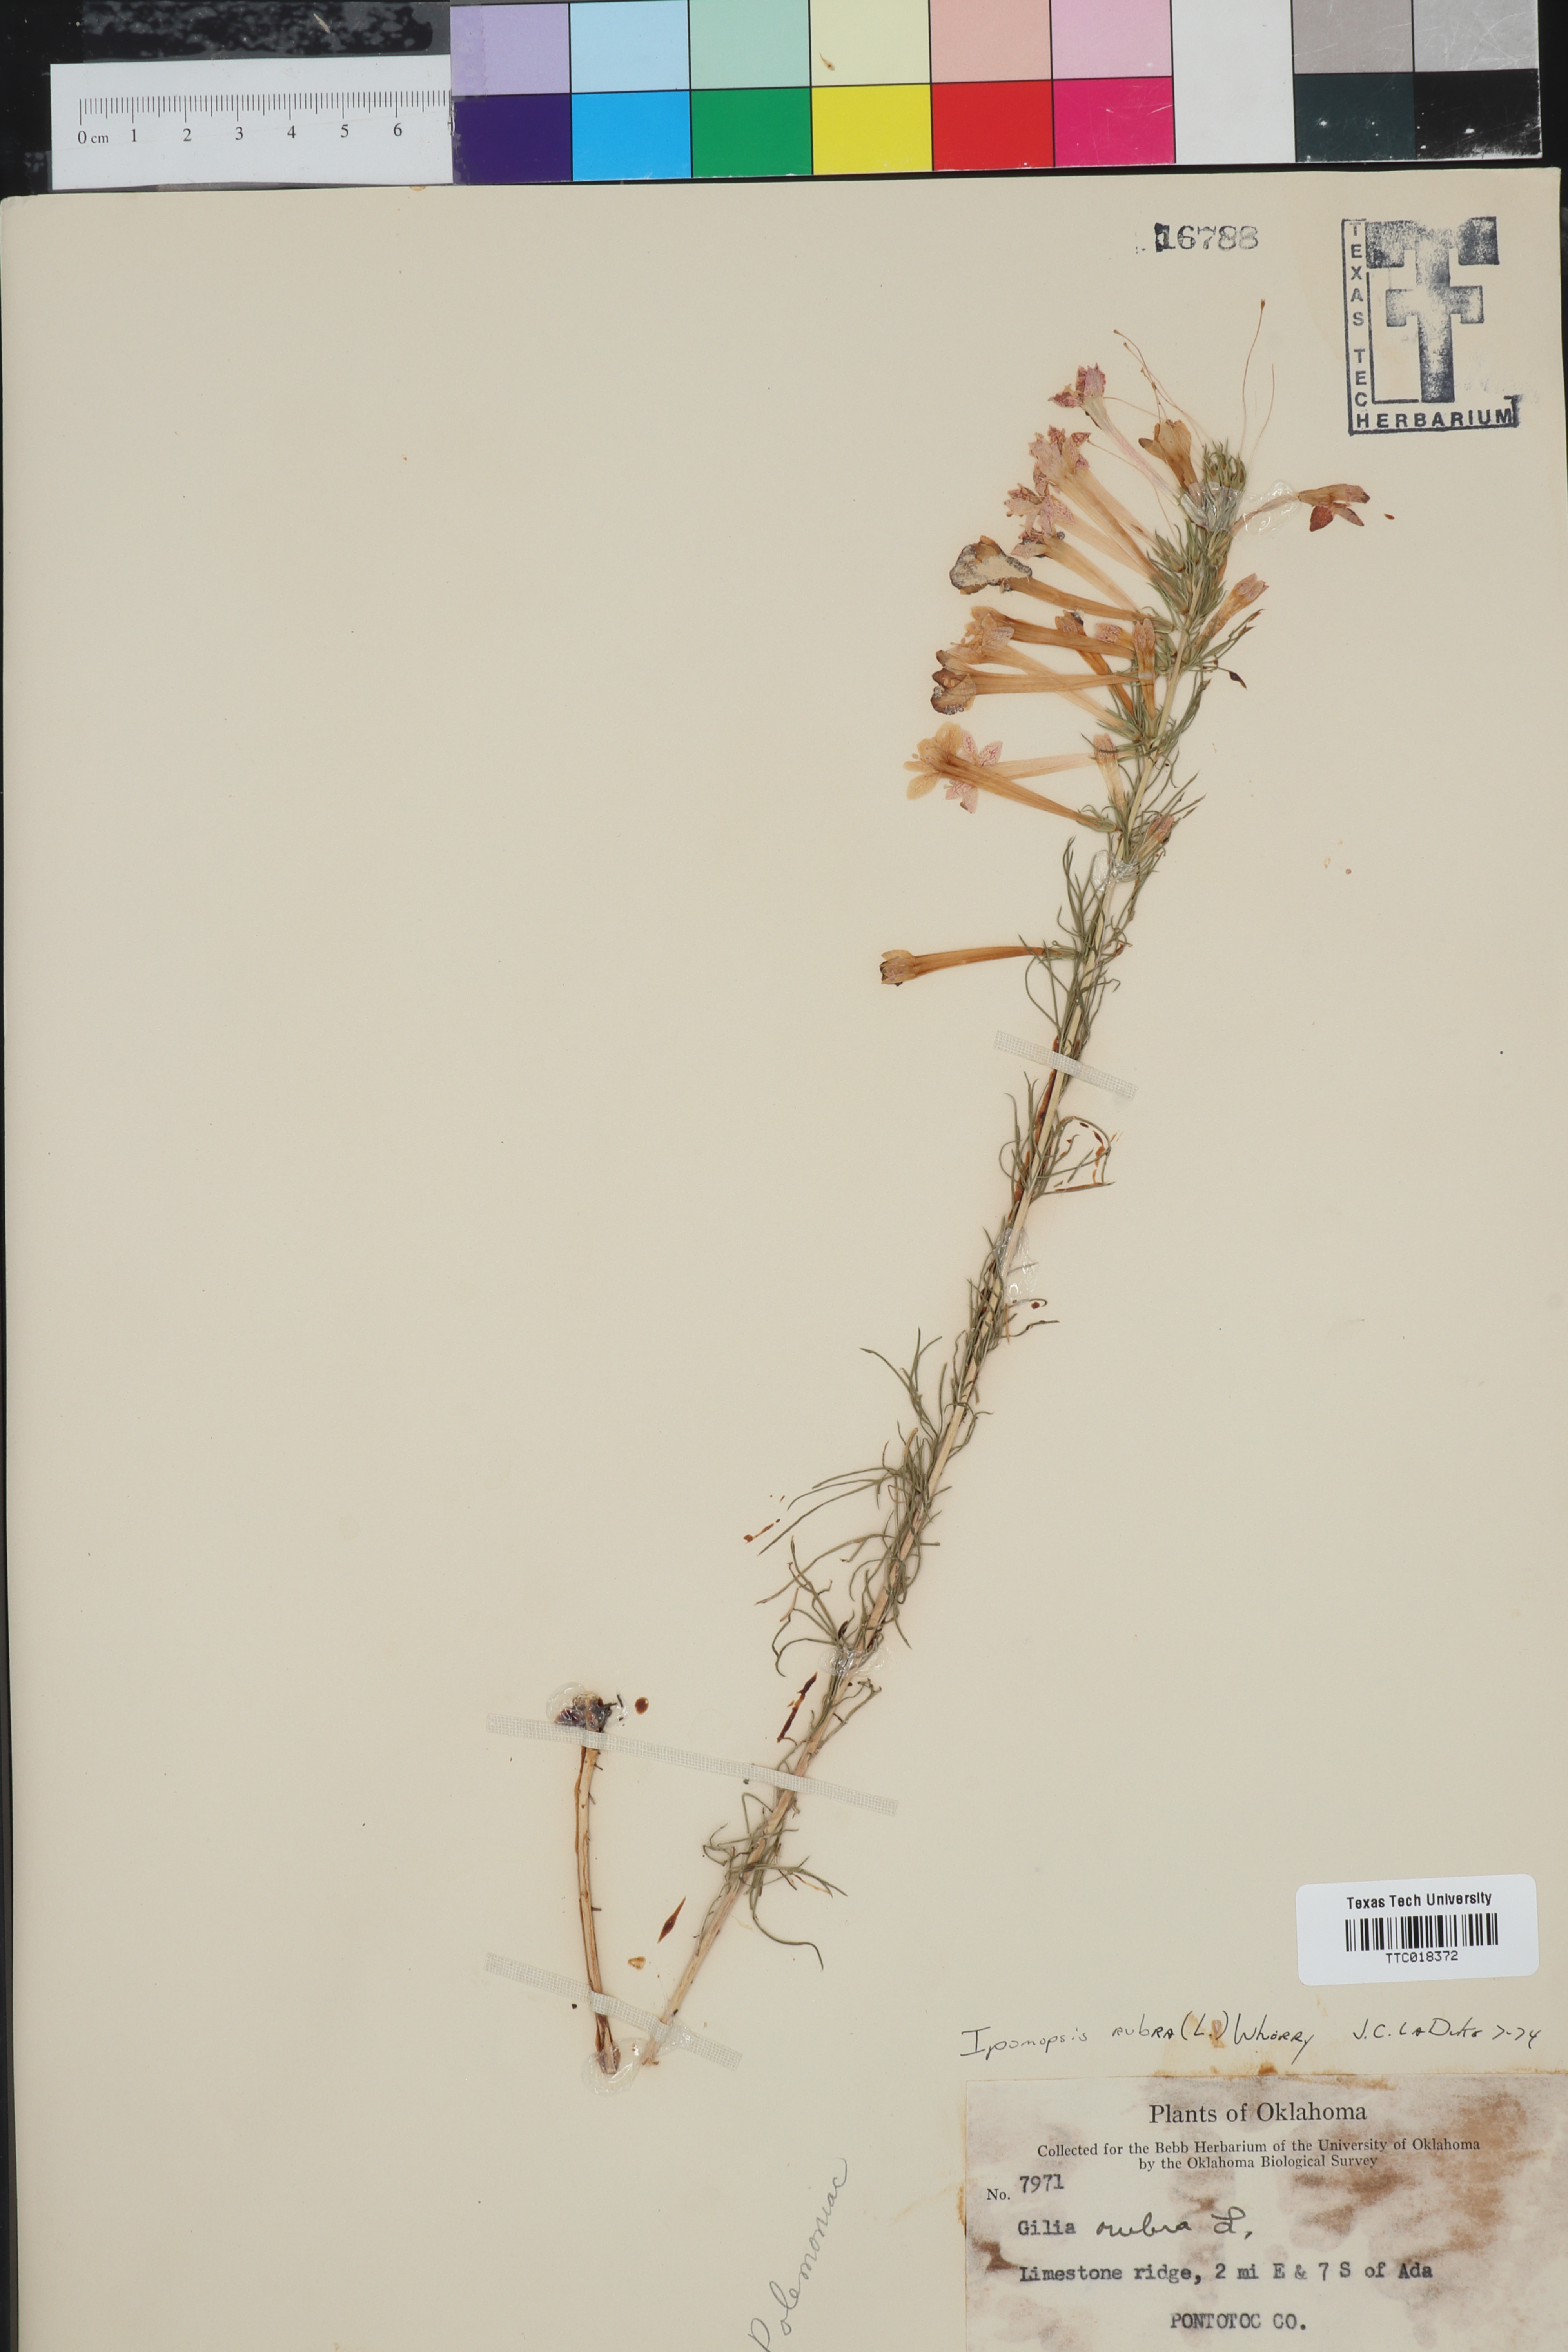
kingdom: Plantae
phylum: Tracheophyta
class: Magnoliopsida
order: Ericales
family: Polemoniaceae
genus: Ipomopsis
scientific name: Ipomopsis rubra
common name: Skyrocket
